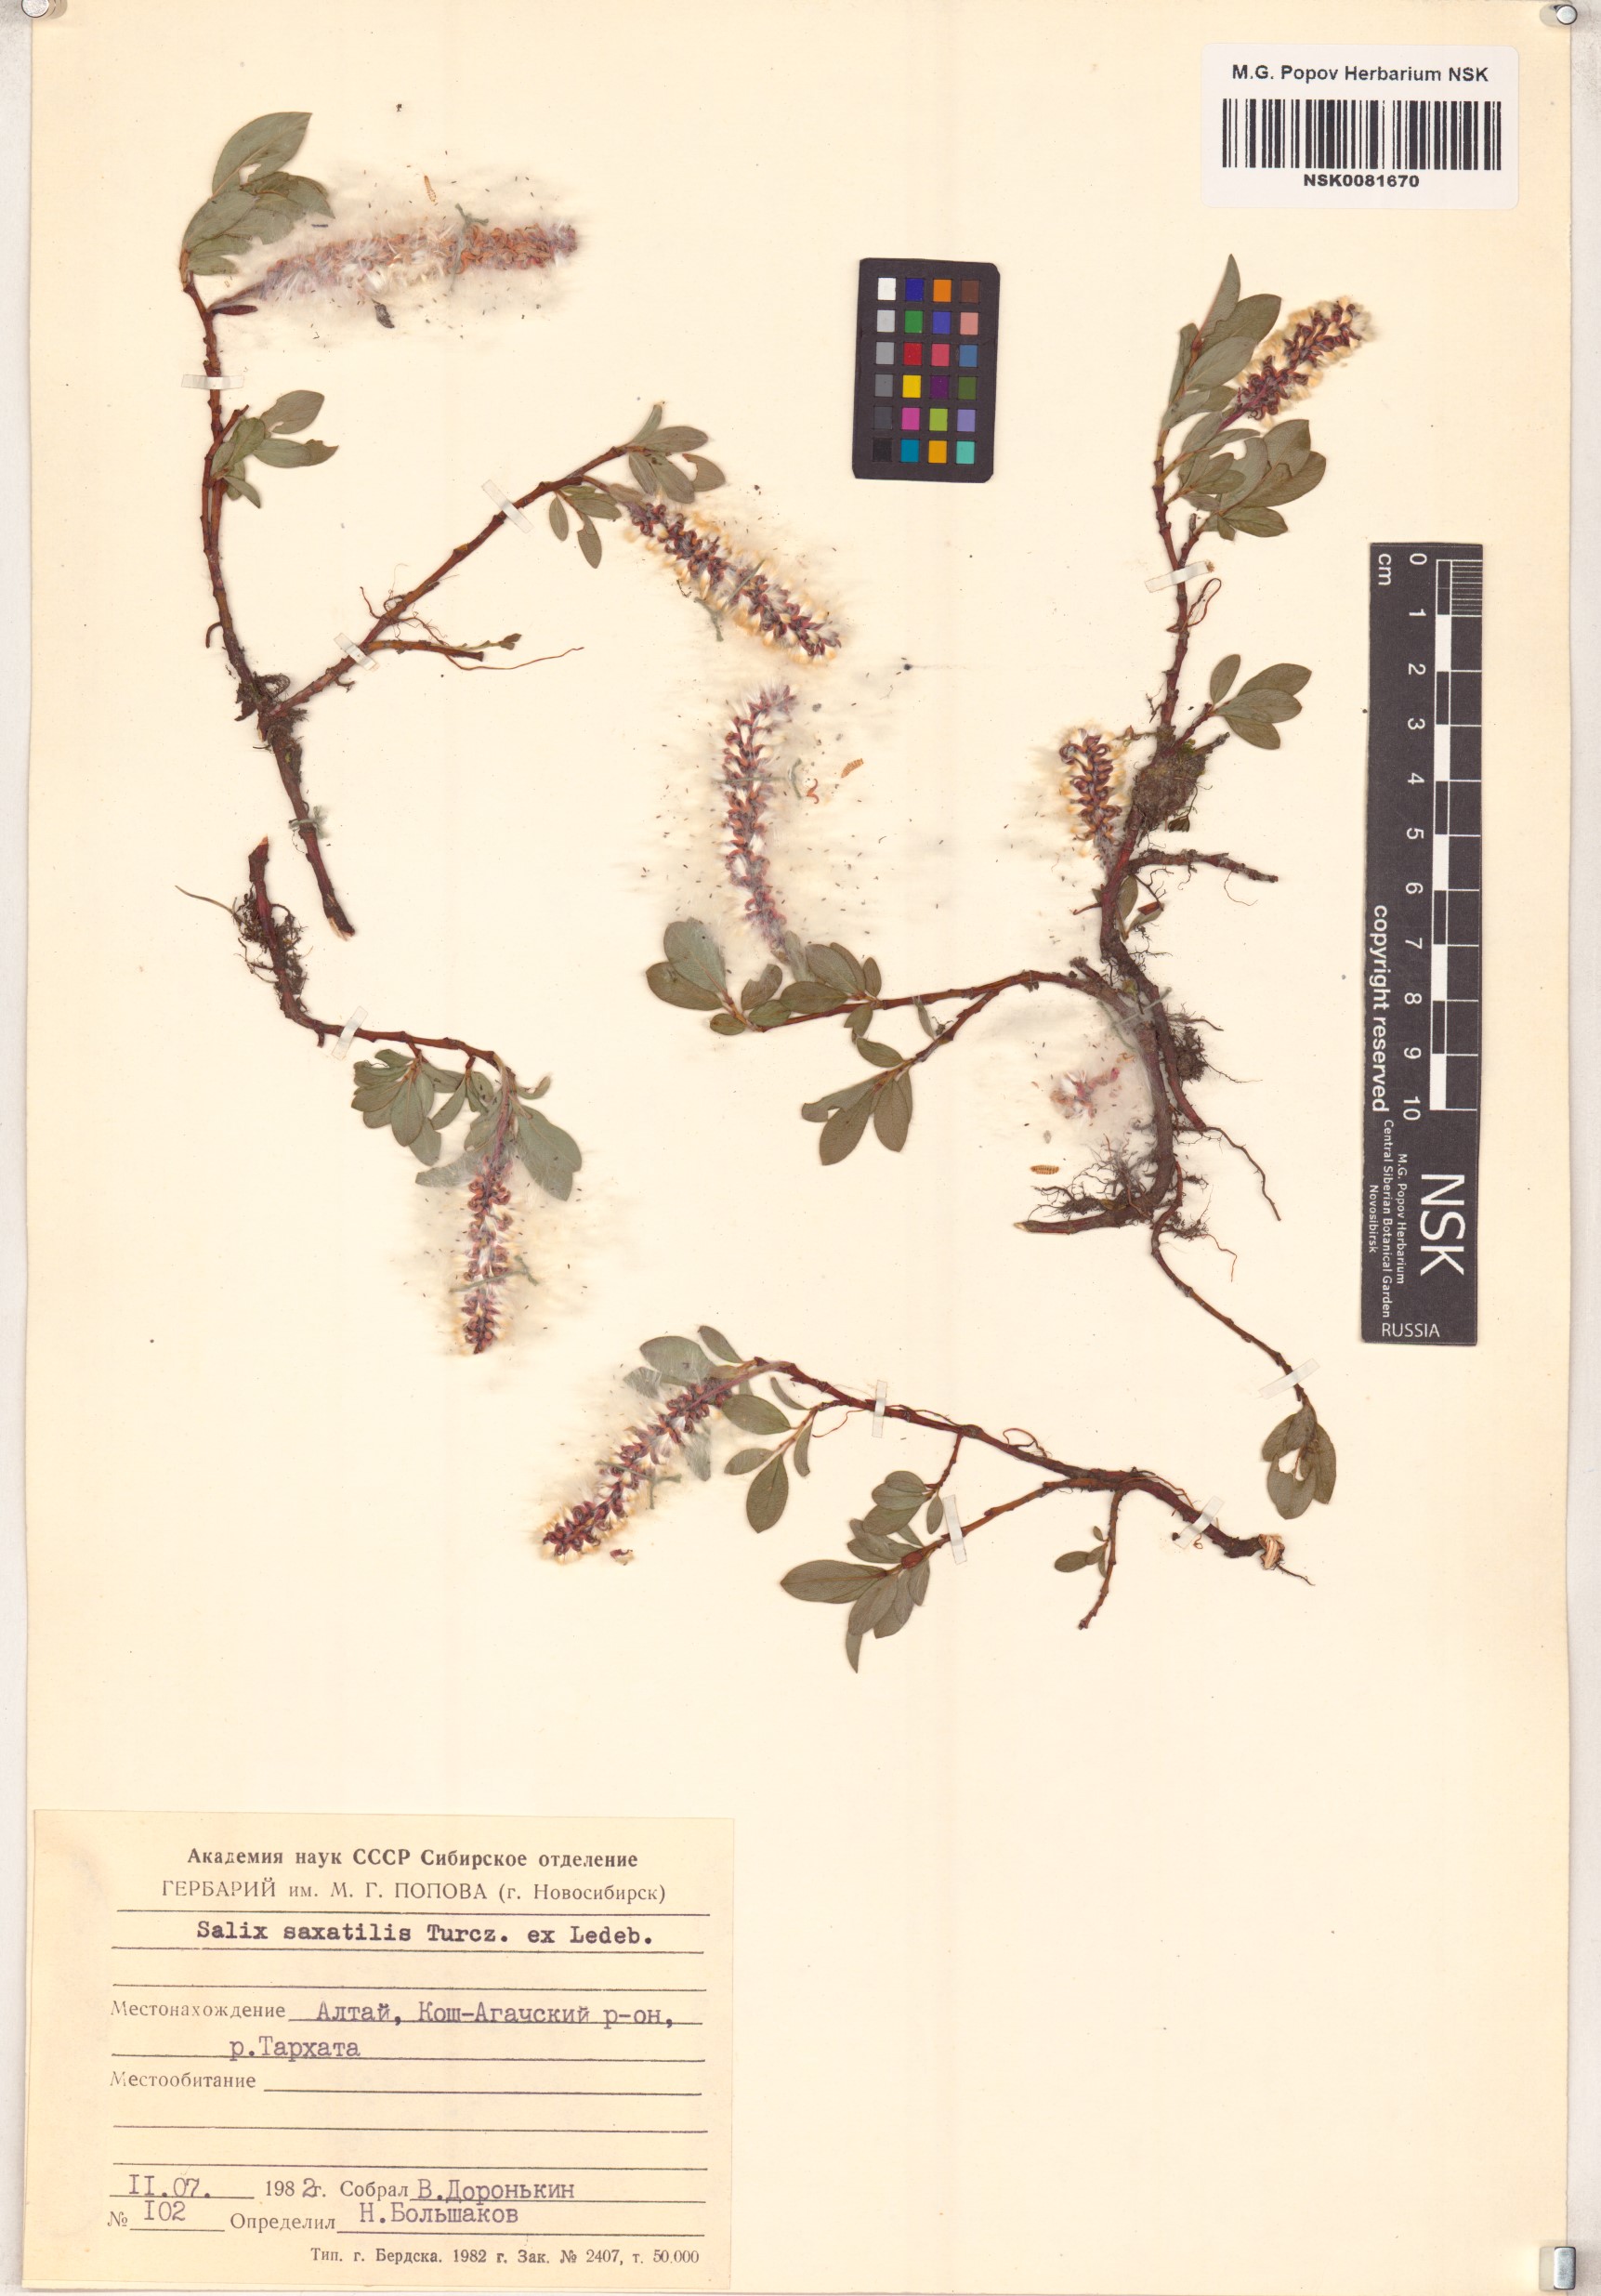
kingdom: Plantae
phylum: Tracheophyta
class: Magnoliopsida
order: Malpighiales
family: Salicaceae
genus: Salix
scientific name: Salix saxatilis
